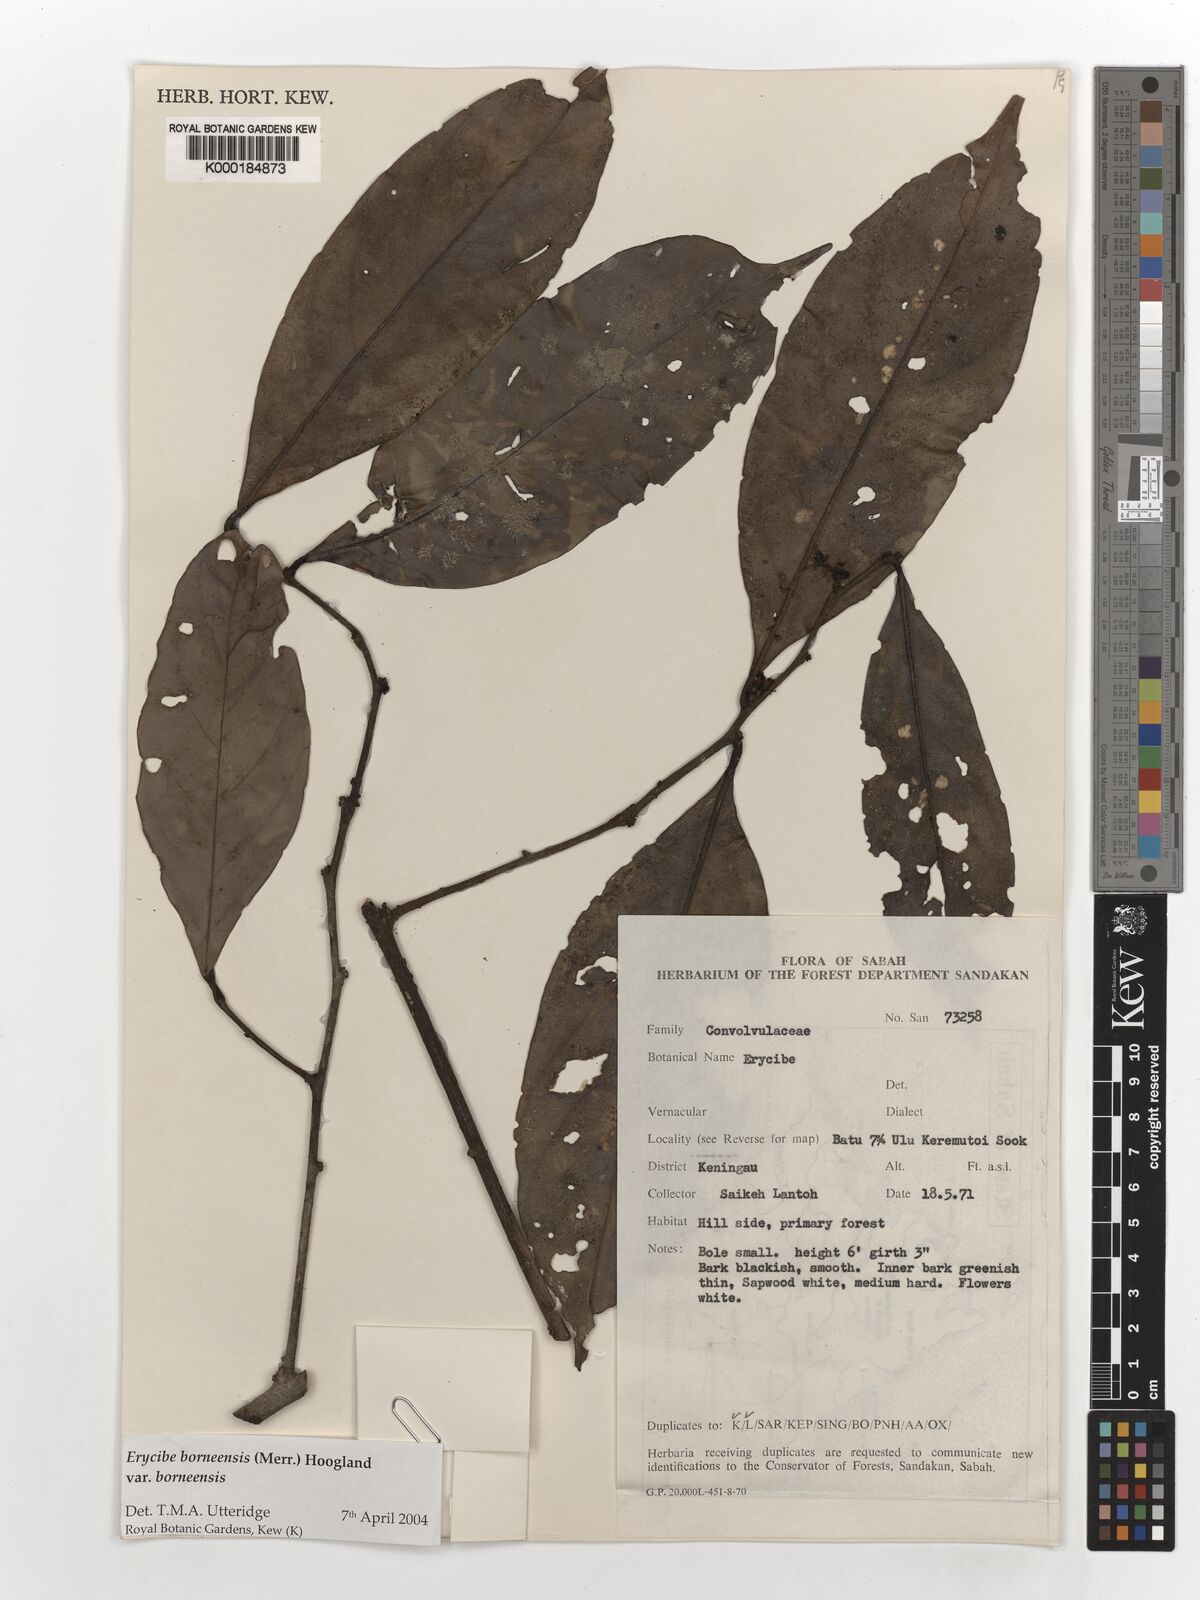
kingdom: Plantae
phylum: Tracheophyta
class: Magnoliopsida
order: Solanales
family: Convolvulaceae
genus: Erycibe
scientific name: Erycibe borneensis
